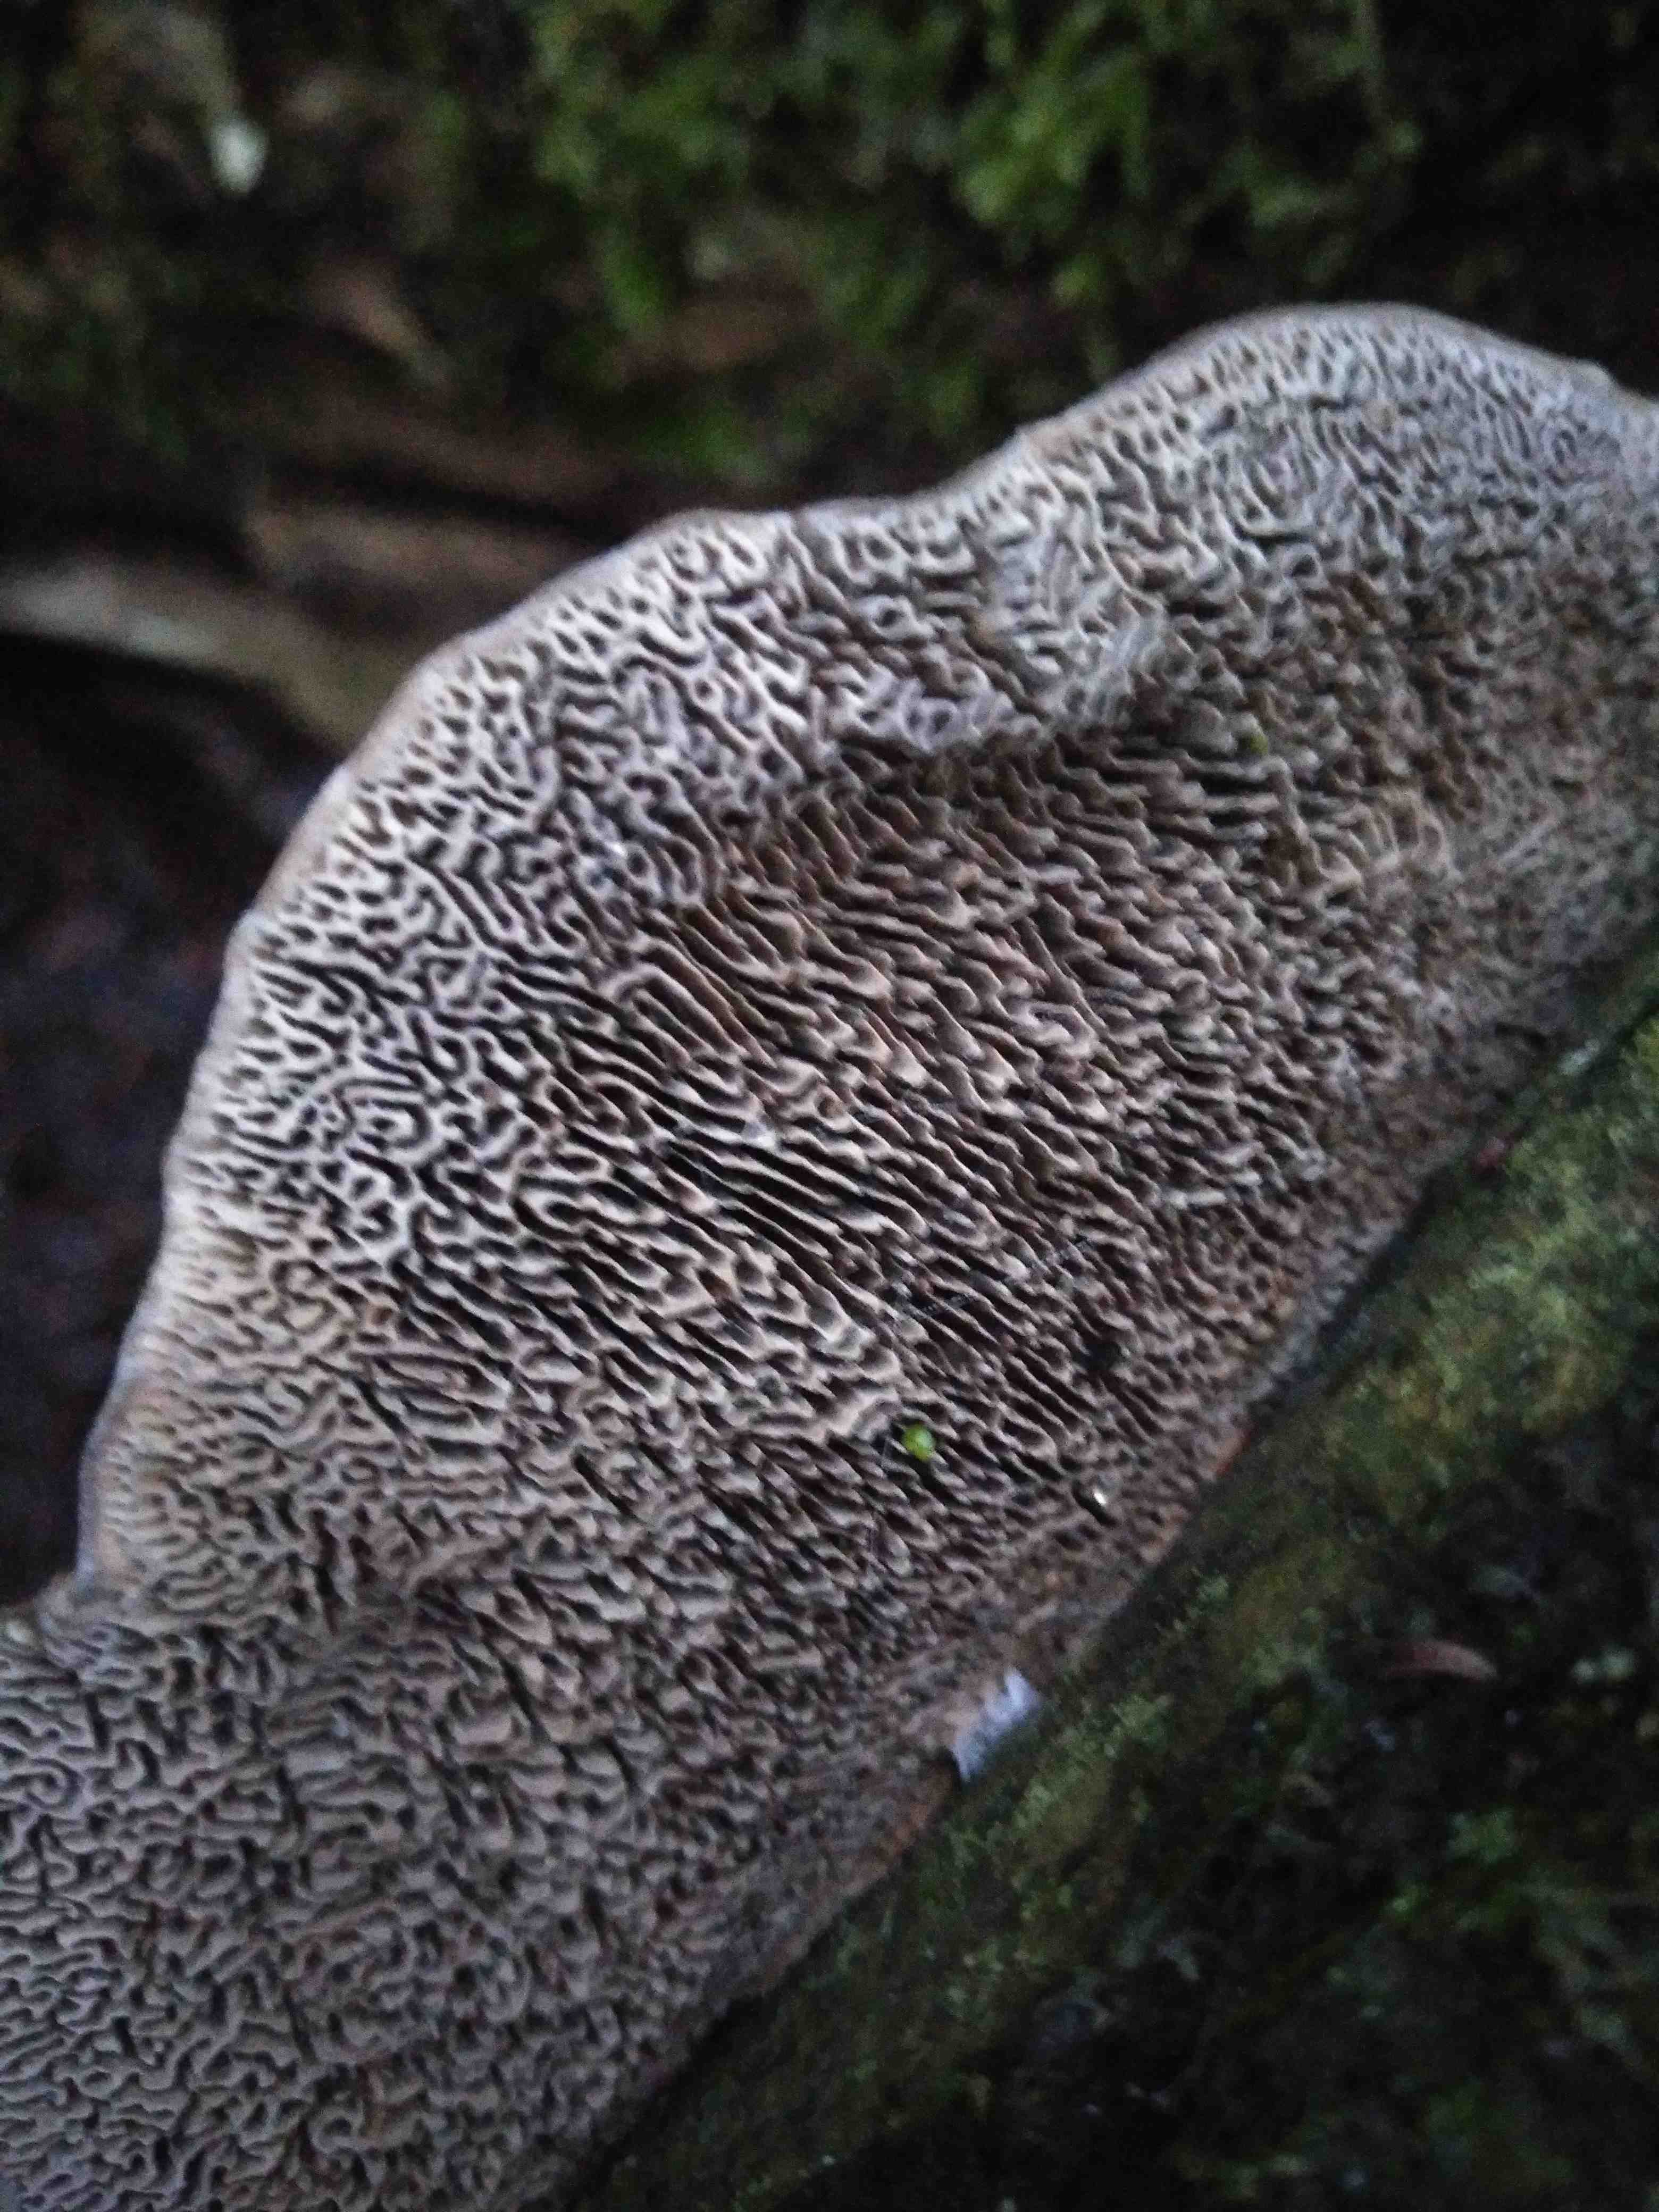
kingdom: Fungi
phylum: Basidiomycota
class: Agaricomycetes
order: Polyporales
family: Polyporaceae
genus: Daedaleopsis
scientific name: Daedaleopsis confragosa
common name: rødmende læderporesvamp
